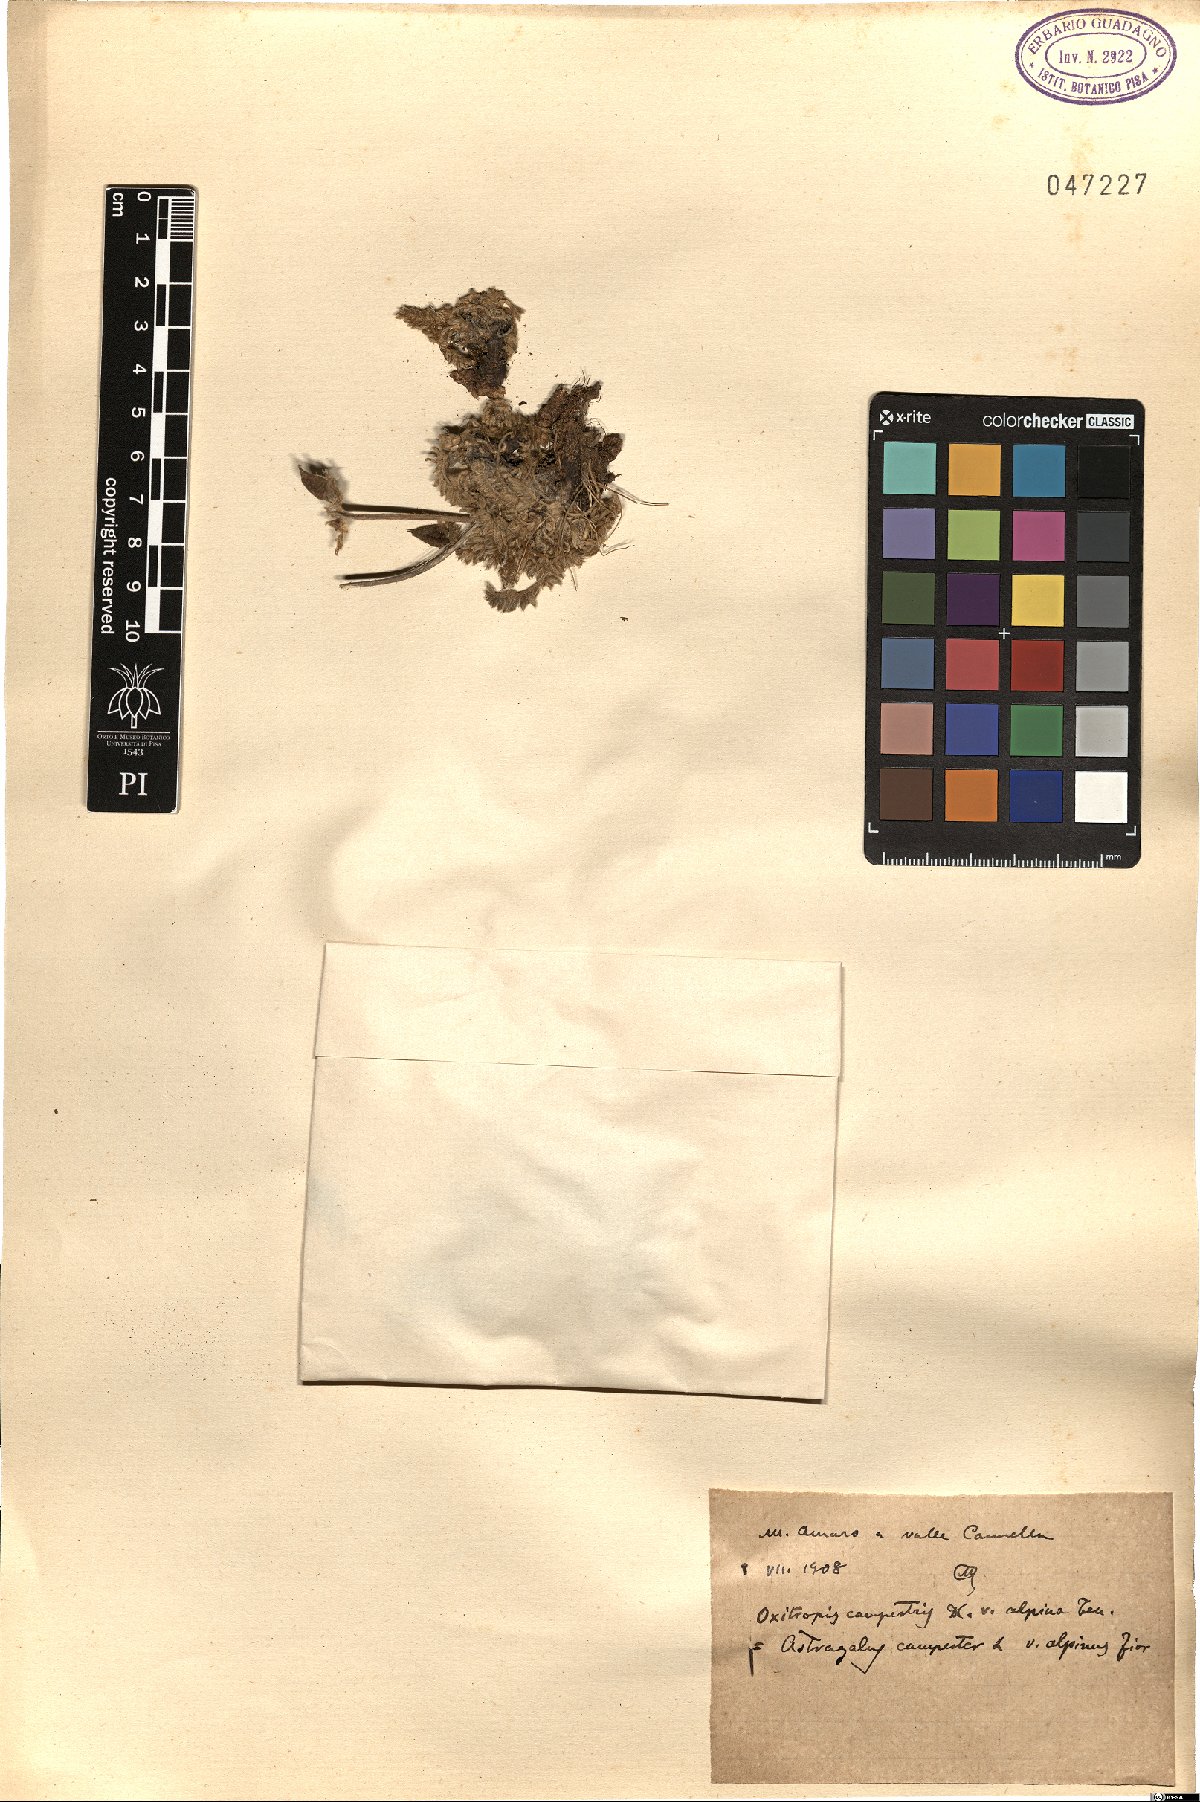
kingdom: Plantae
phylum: Tracheophyta
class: Magnoliopsida
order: Fabales
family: Fabaceae
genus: Oxytropis
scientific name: Oxytropis campestris
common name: Field locoweed
